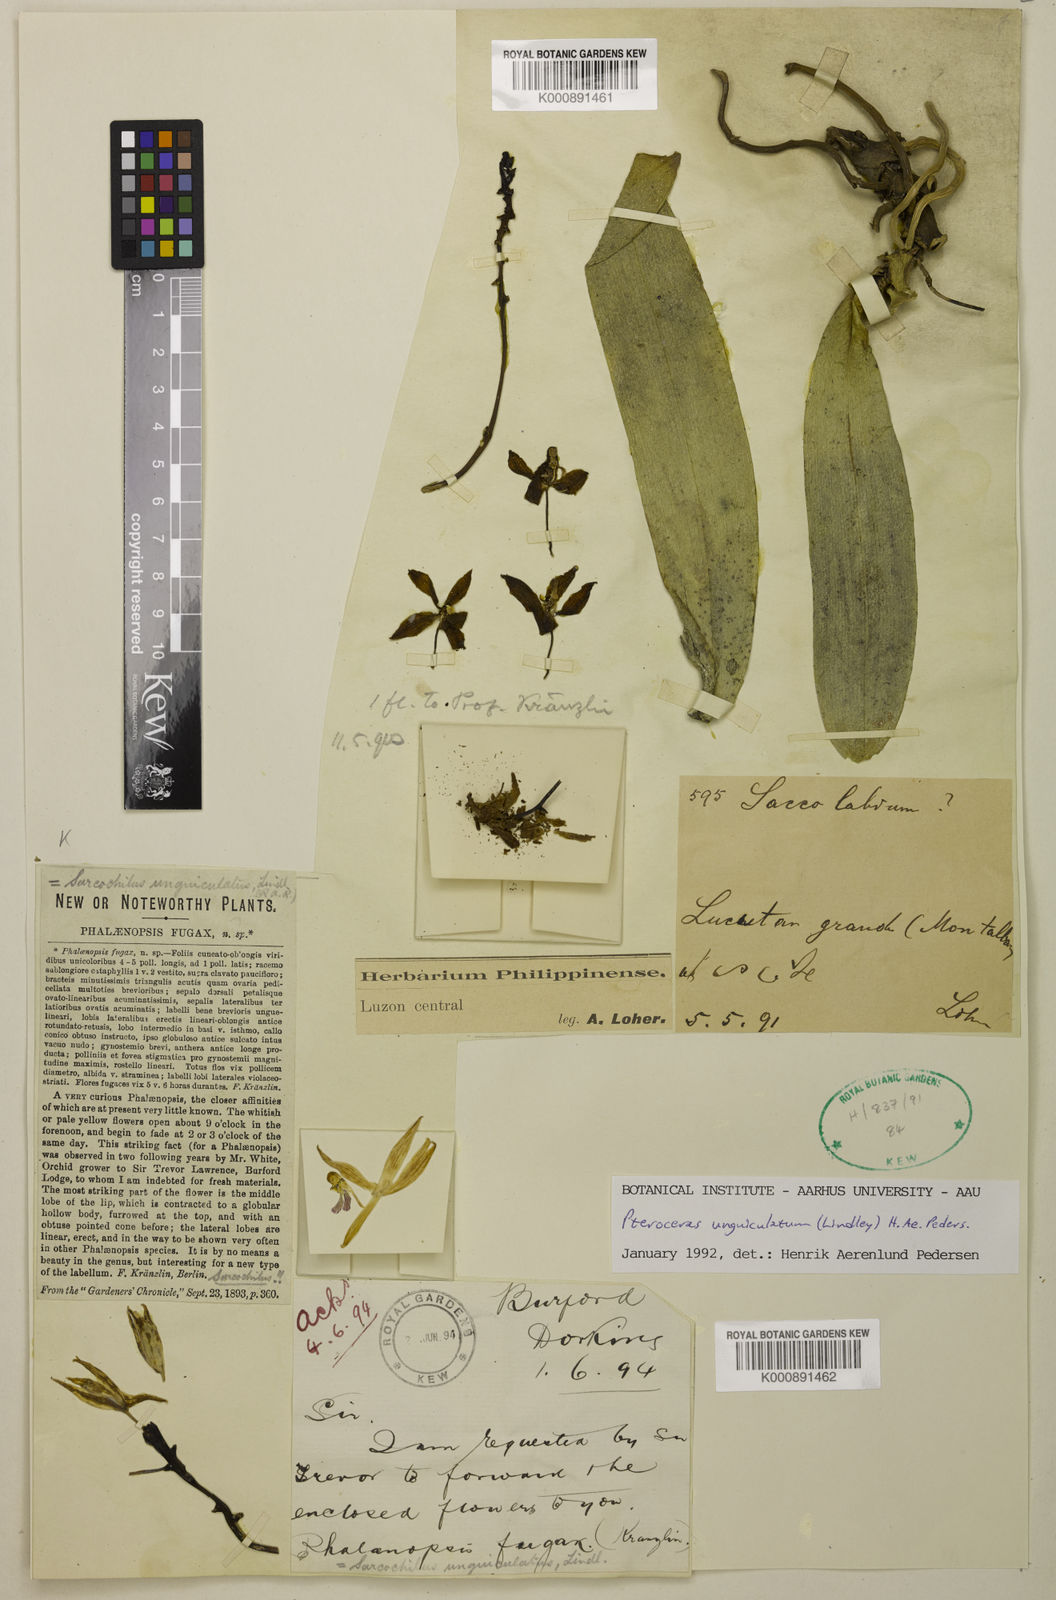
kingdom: Plantae
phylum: Tracheophyta
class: Liliopsida
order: Asparagales
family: Orchidaceae
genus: Brachypeza
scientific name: Brachypeza unguiculata
